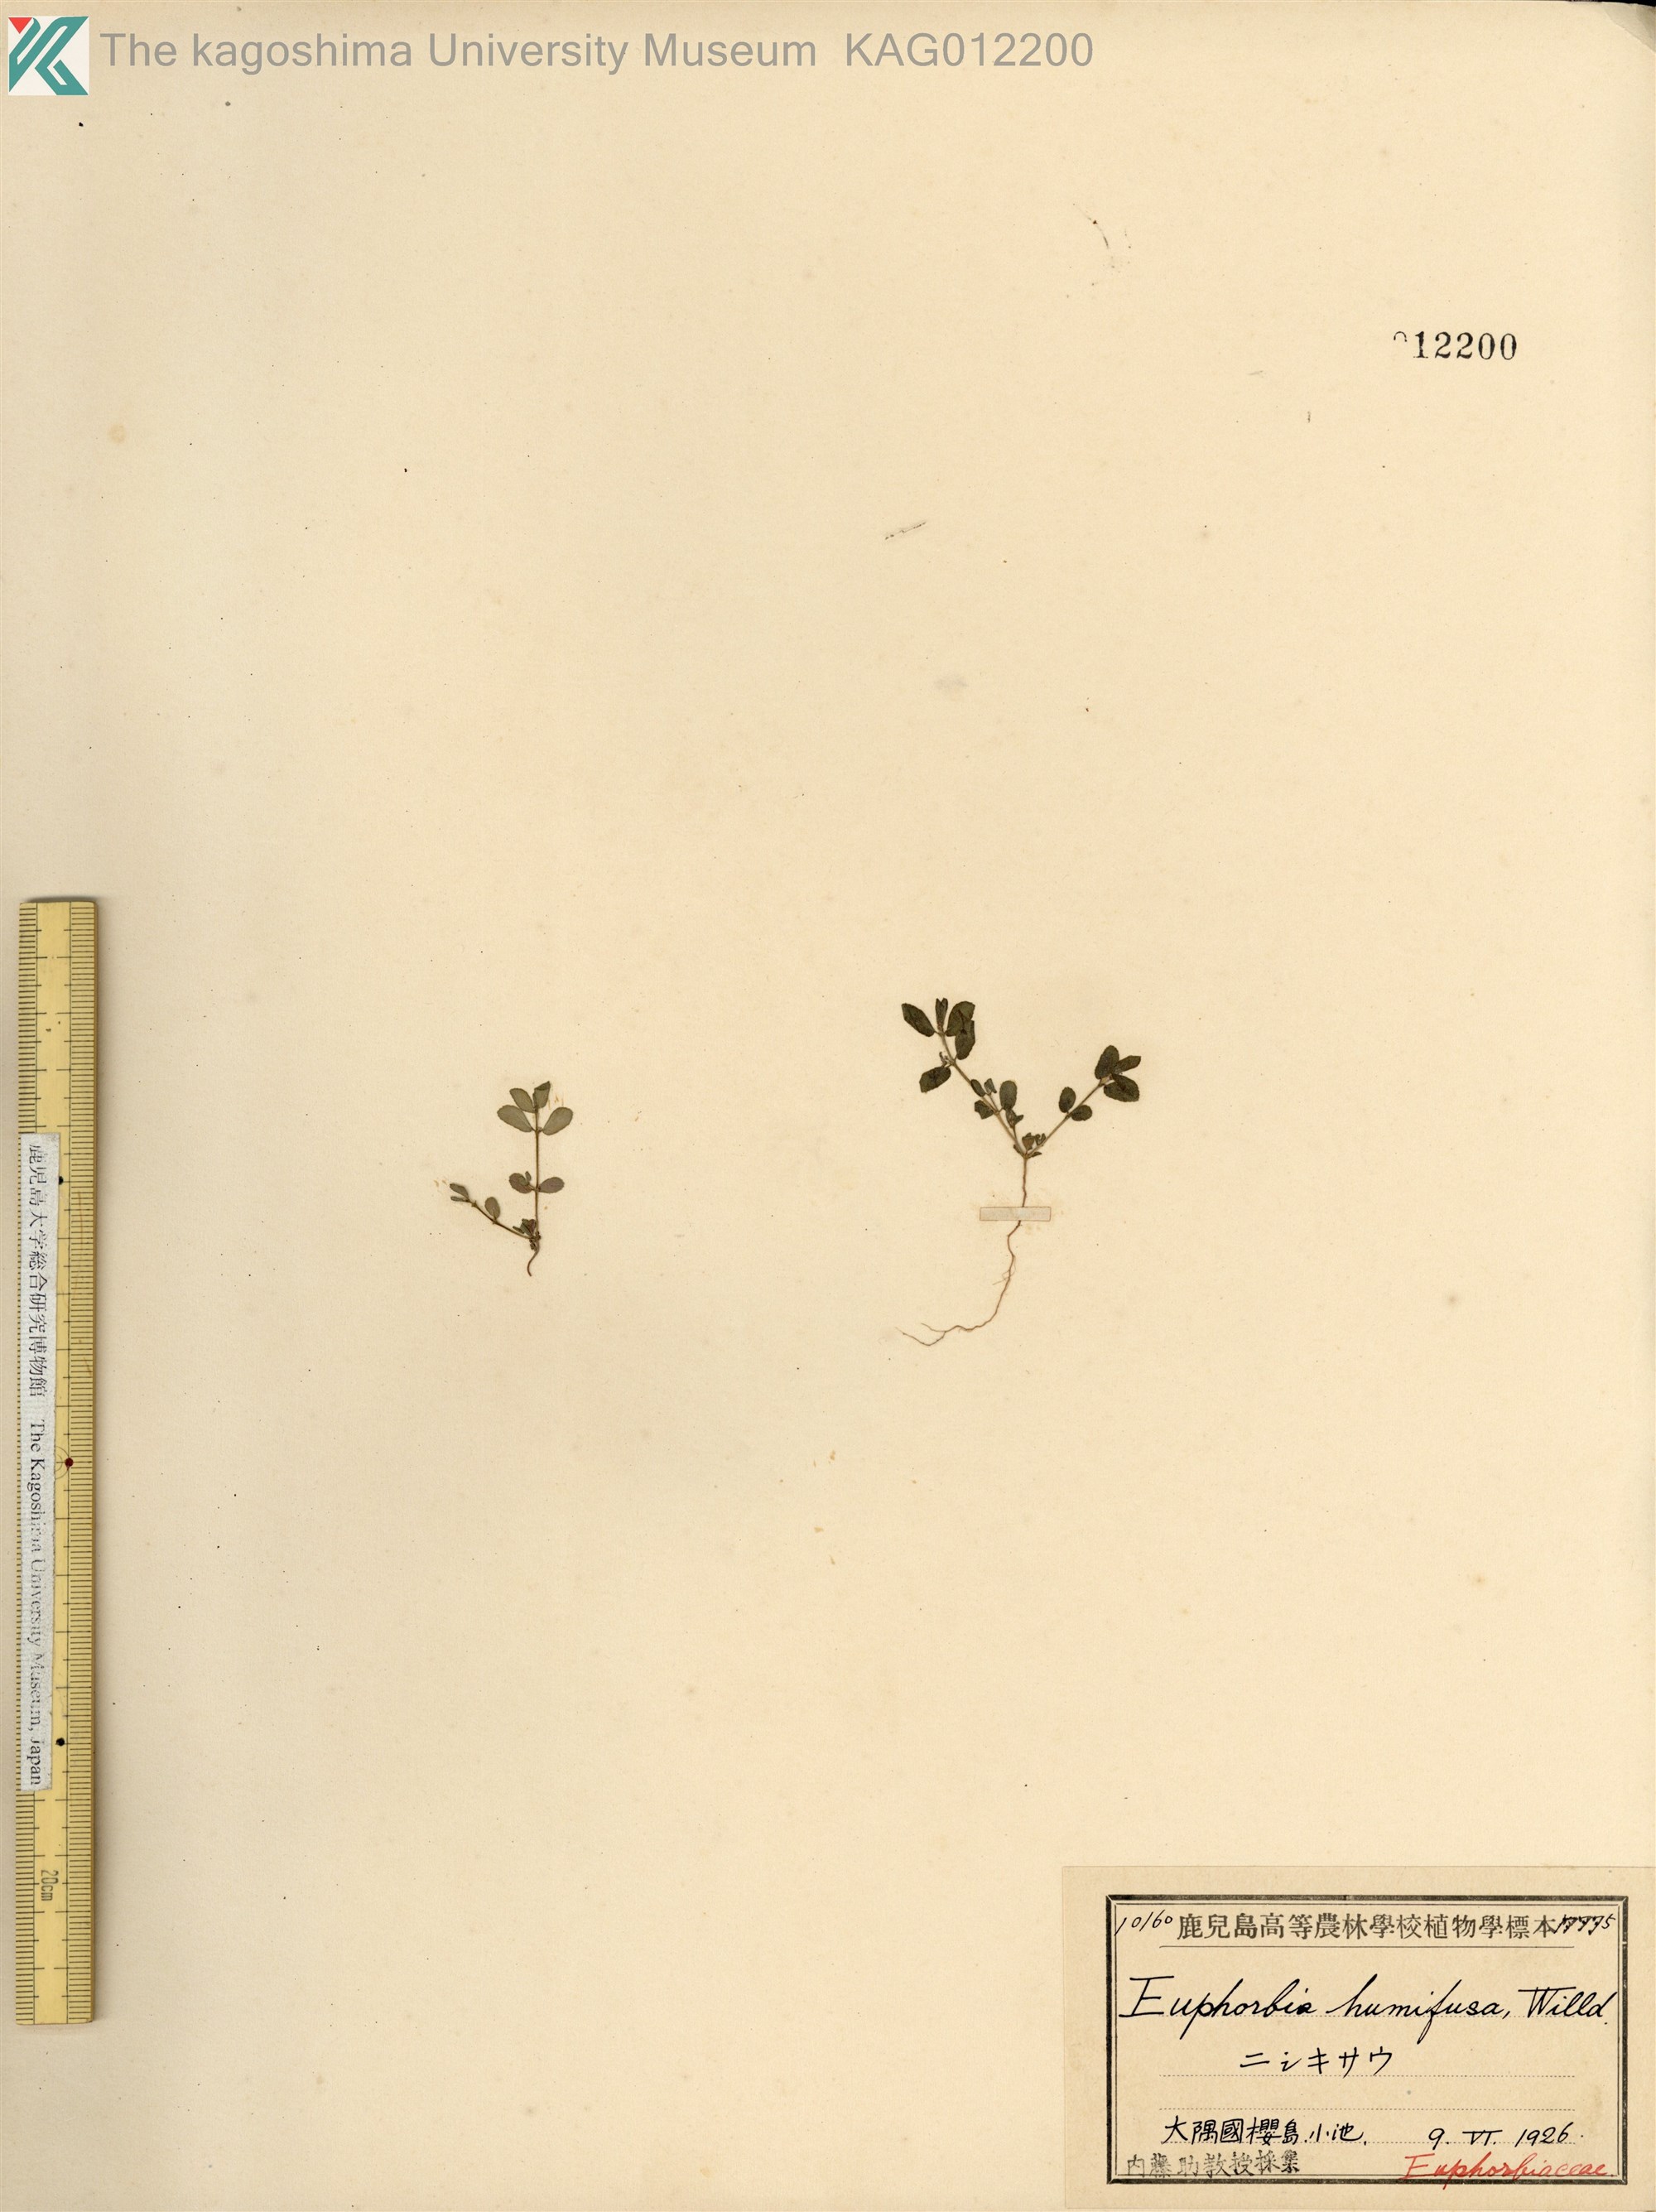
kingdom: Plantae
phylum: Tracheophyta
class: Magnoliopsida
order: Malpighiales
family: Euphorbiaceae
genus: Euphorbia
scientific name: Euphorbia maculata
